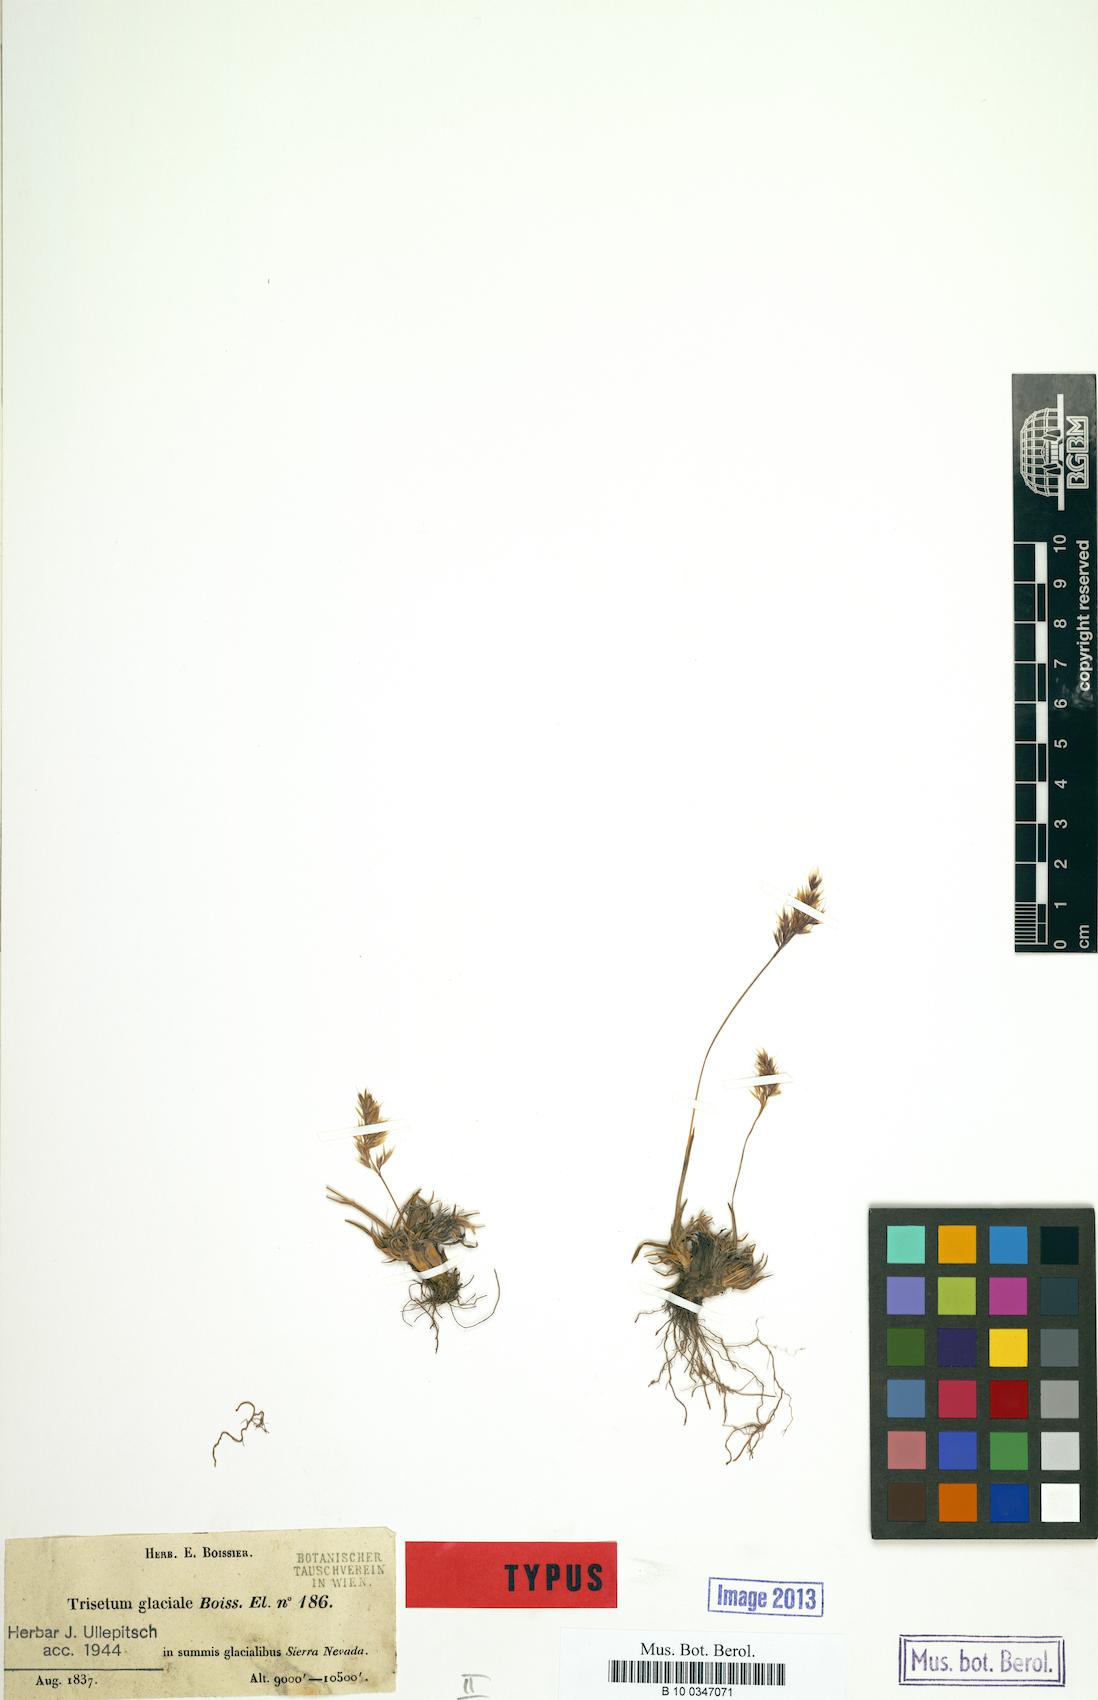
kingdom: Plantae
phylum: Tracheophyta
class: Liliopsida
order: Poales
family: Poaceae
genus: Acrospelion
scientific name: Acrospelion glaciale
